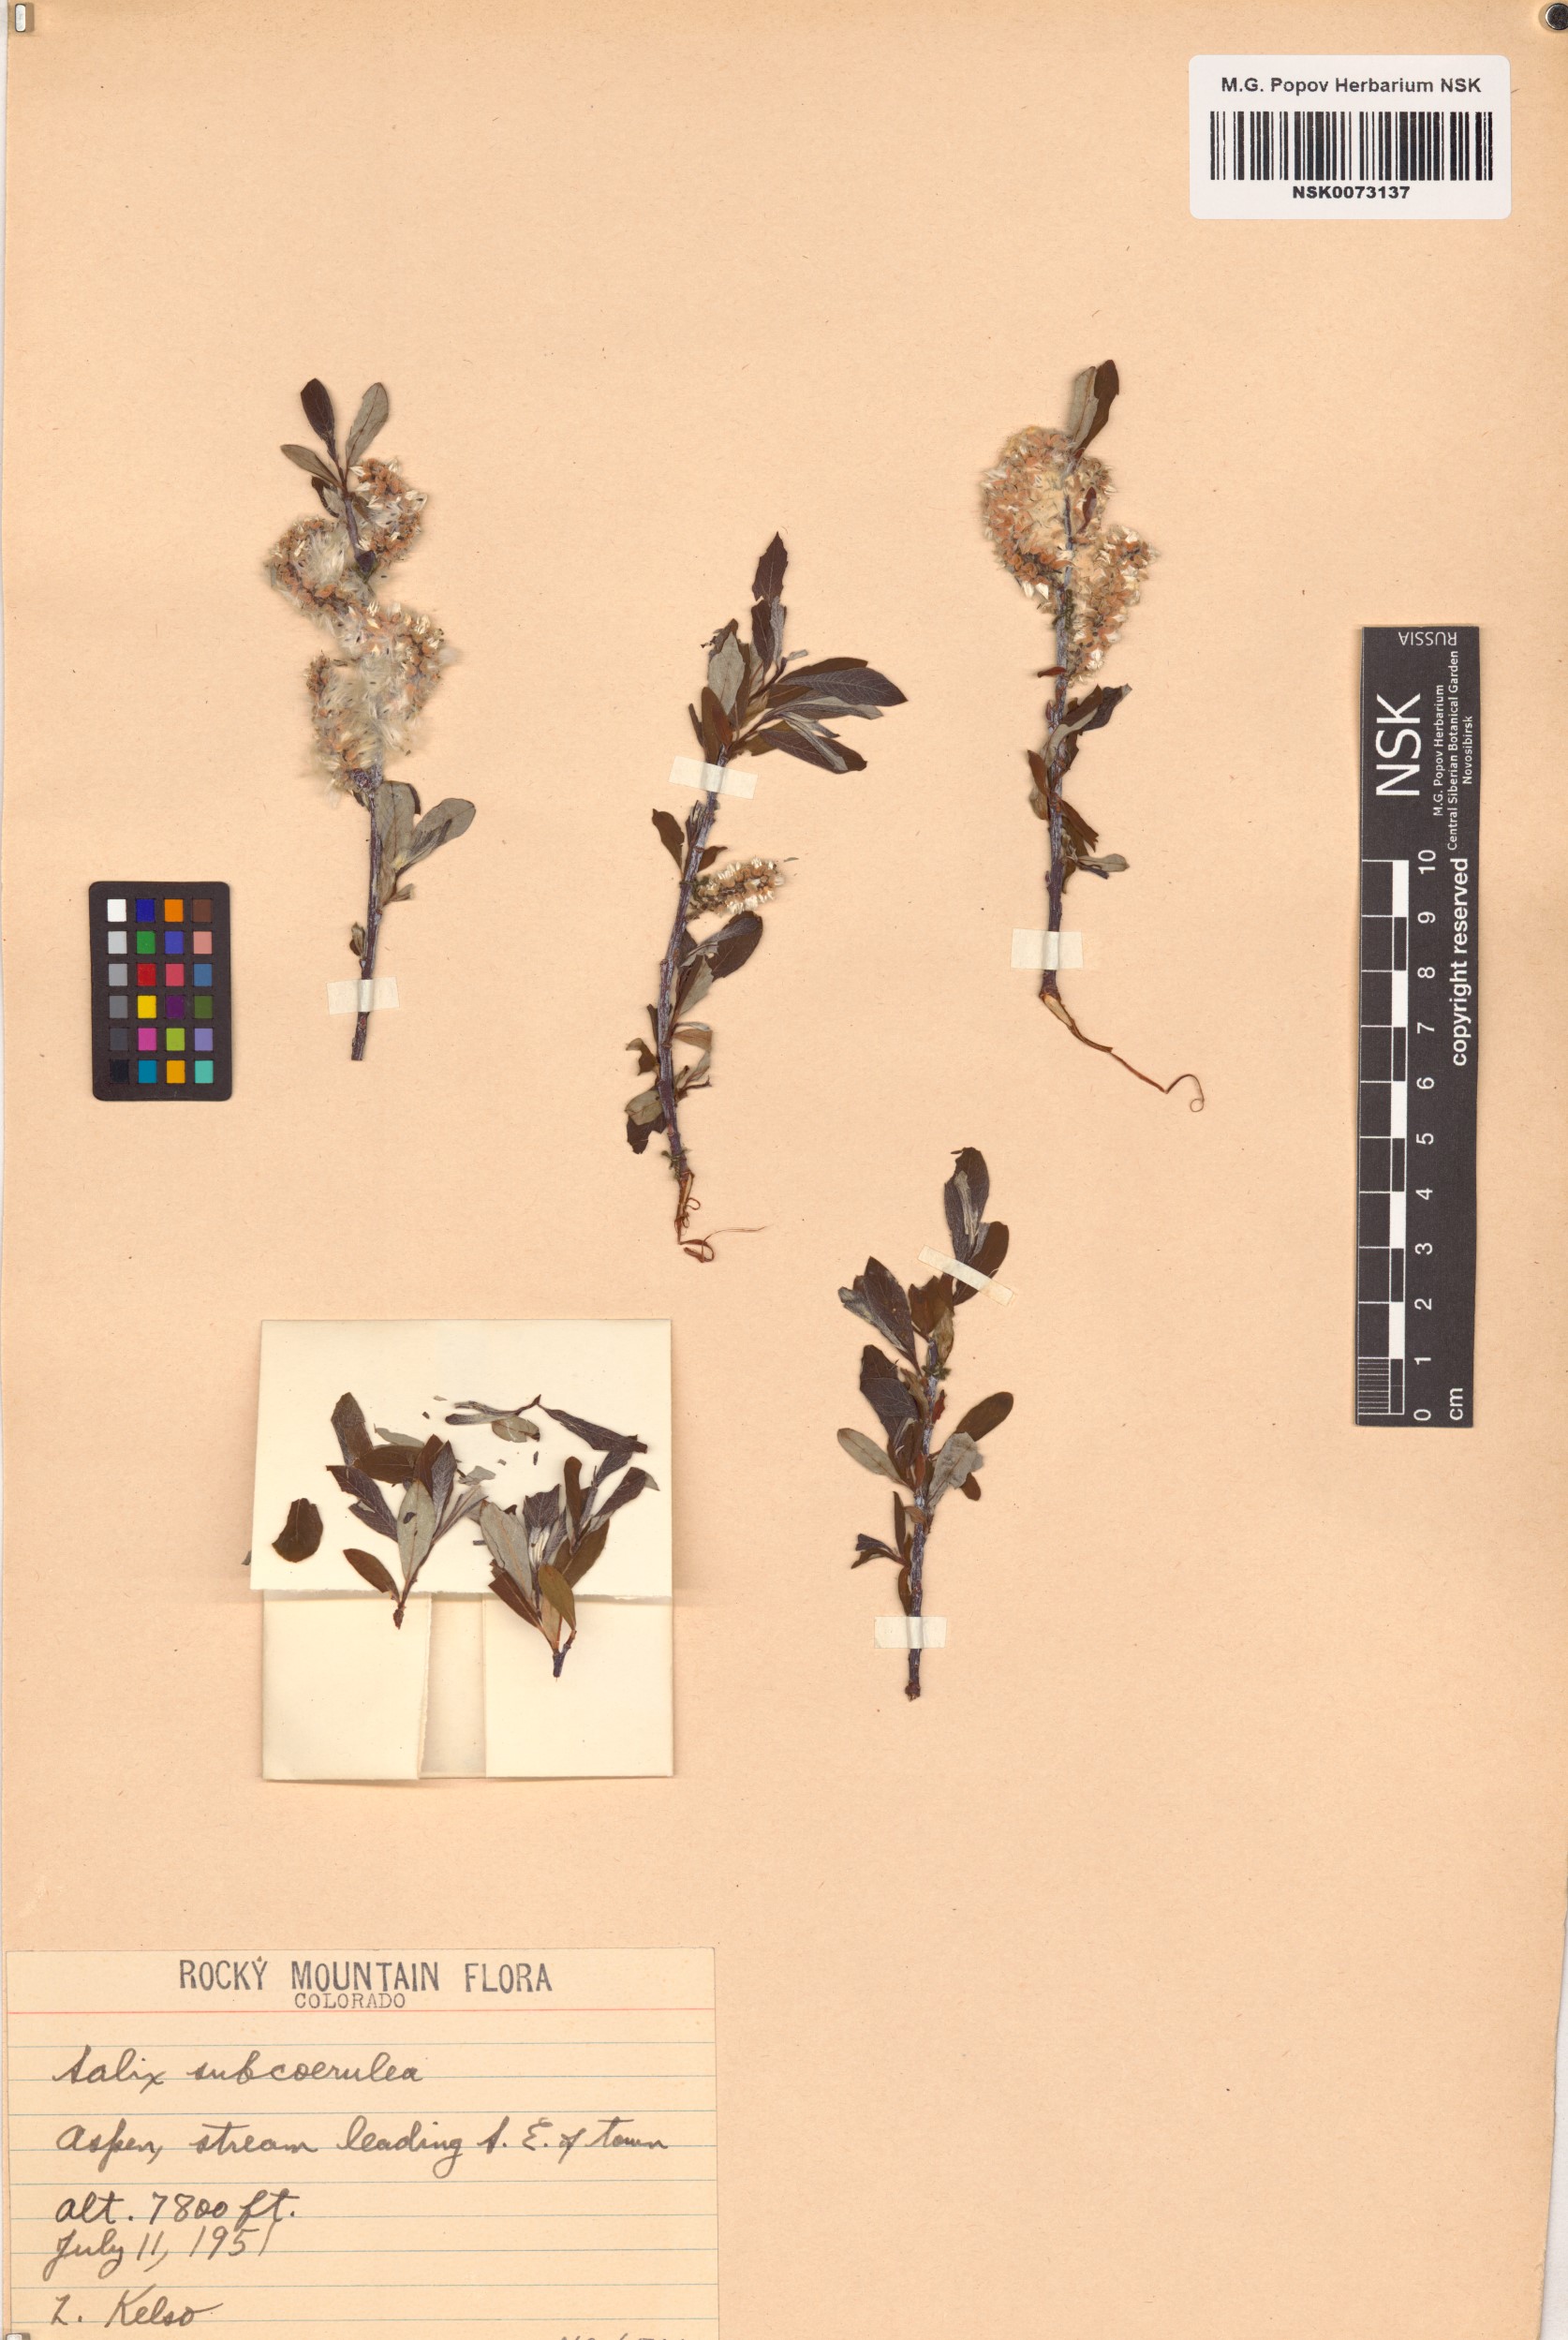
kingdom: Plantae
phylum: Tracheophyta
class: Magnoliopsida
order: Malpighiales
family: Salicaceae
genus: Salix
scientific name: Salix drummondiana
